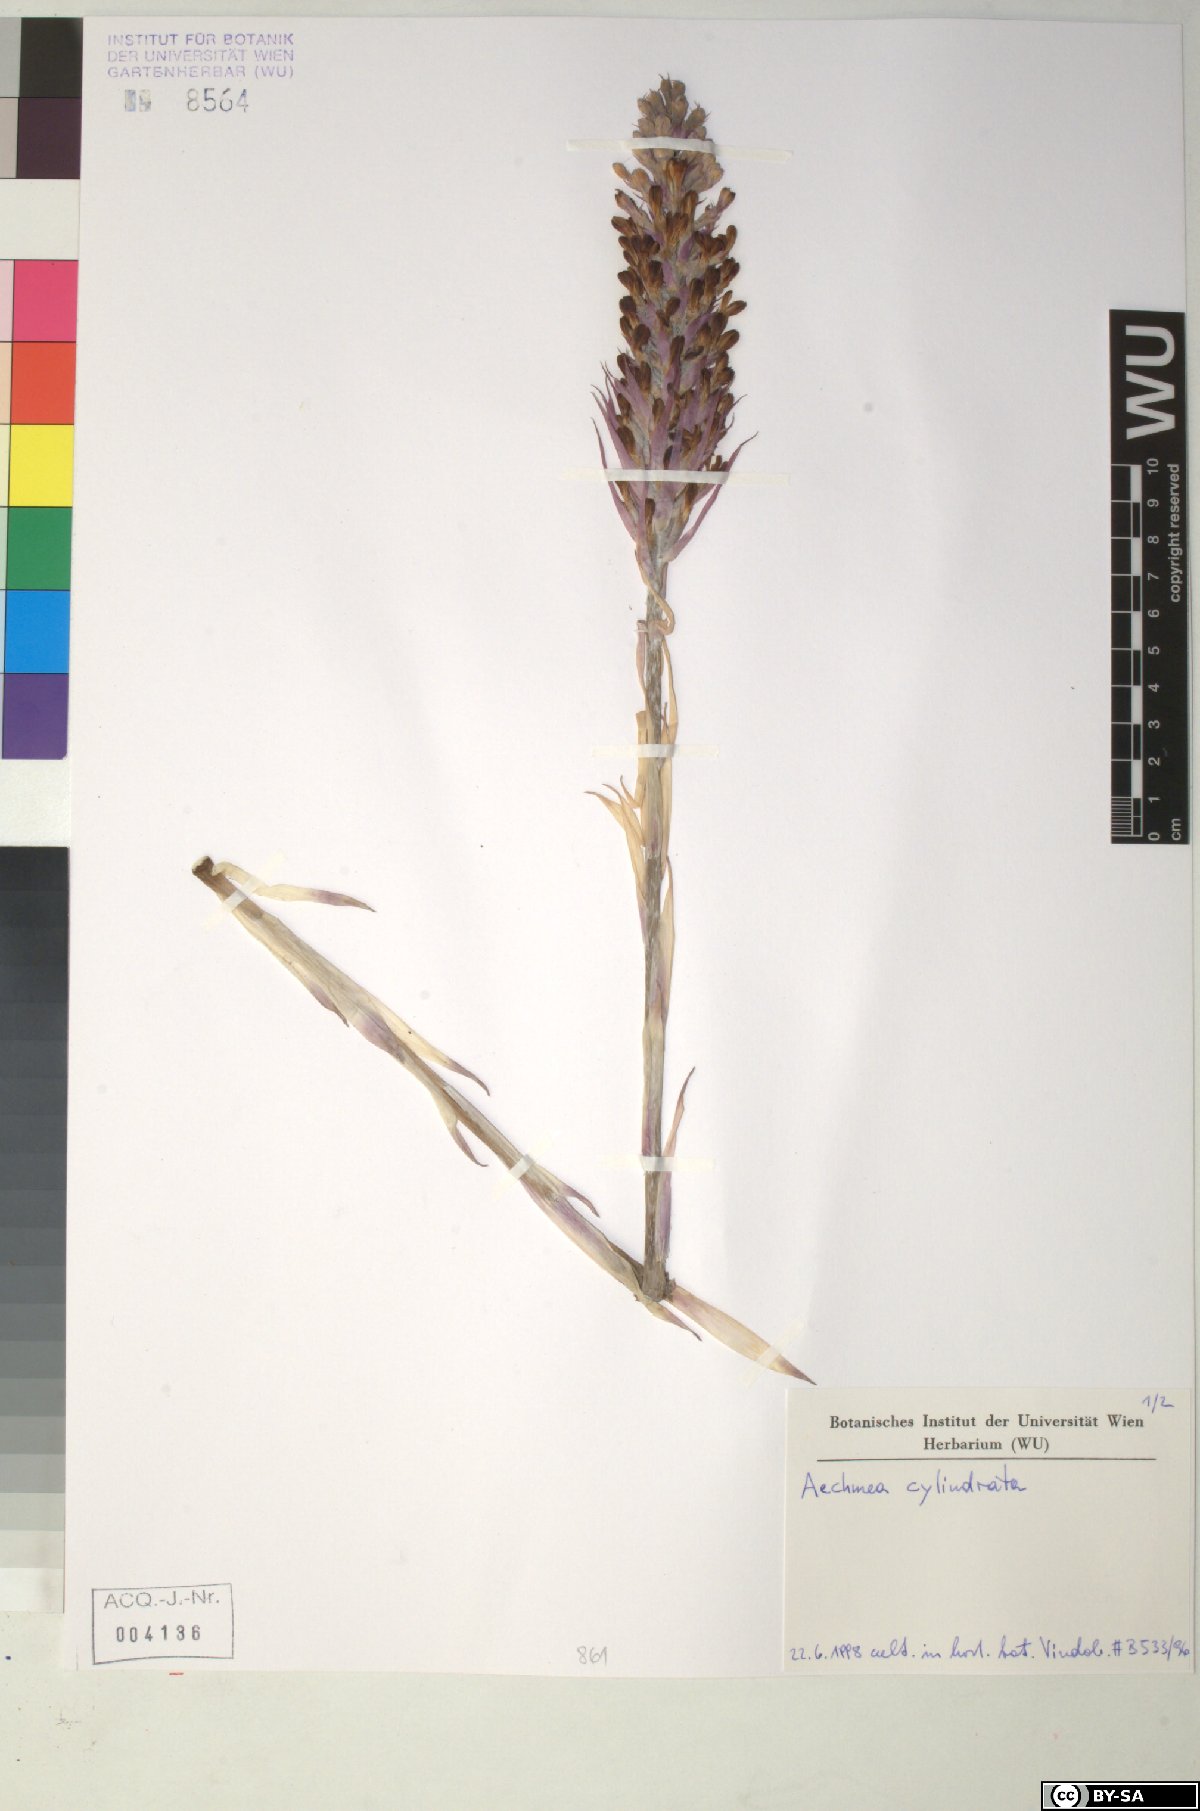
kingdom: Plantae
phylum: Tracheophyta
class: Liliopsida
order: Poales
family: Bromeliaceae
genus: Aechmea
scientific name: Aechmea cylindrata
